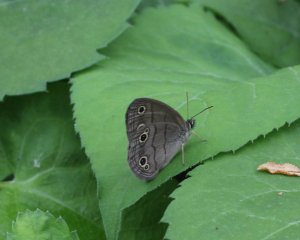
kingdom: Animalia
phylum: Arthropoda
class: Insecta
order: Lepidoptera
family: Nymphalidae
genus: Euptychia
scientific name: Euptychia cymela
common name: Little Wood Satyr
